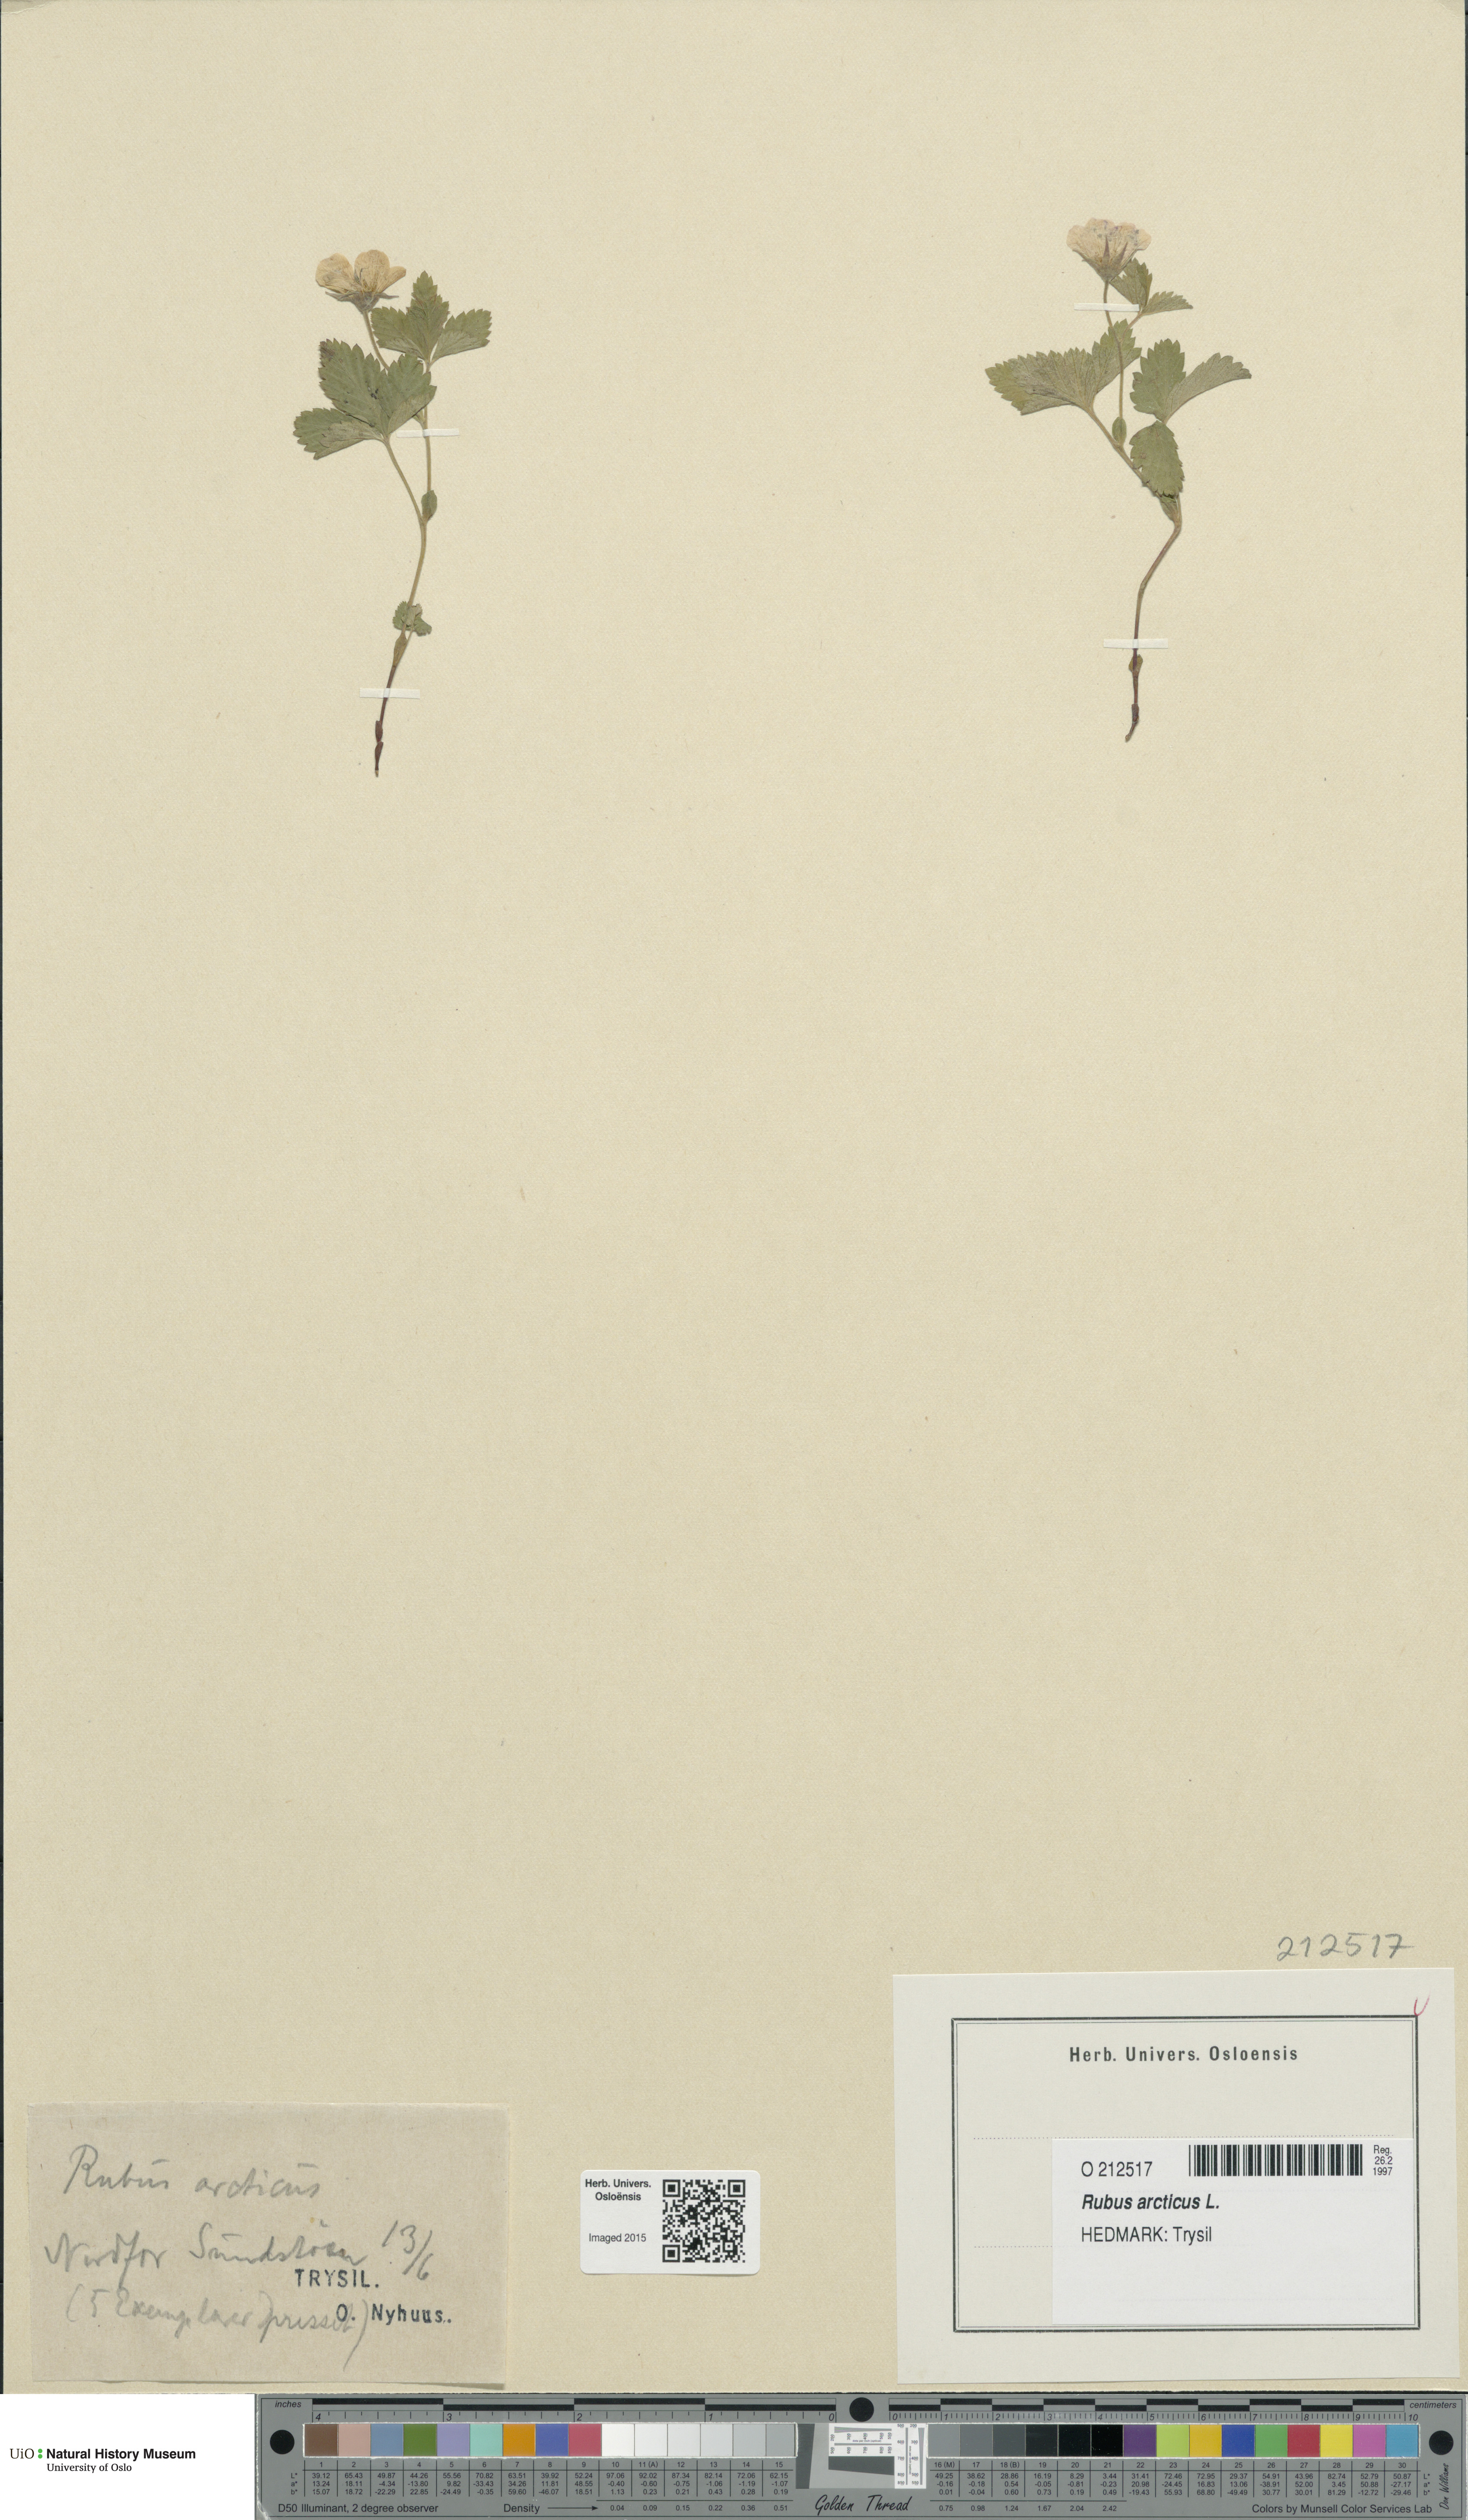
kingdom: Plantae
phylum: Tracheophyta
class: Magnoliopsida
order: Rosales
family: Rosaceae
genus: Rubus
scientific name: Rubus arcticus
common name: Arctic bramble
